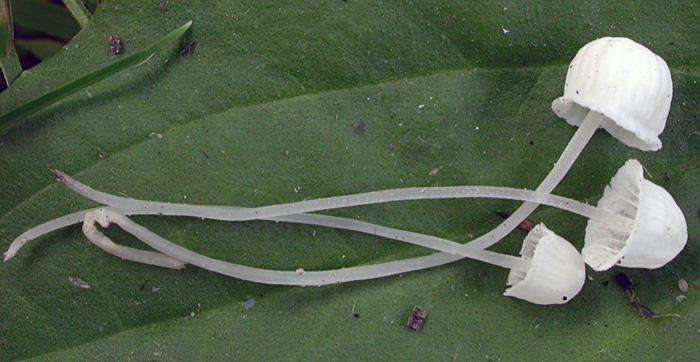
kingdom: Fungi
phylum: Basidiomycota
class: Agaricomycetes
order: Agaricales
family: Mycenaceae
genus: Hemimycena
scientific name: Hemimycena pseudocrispata
